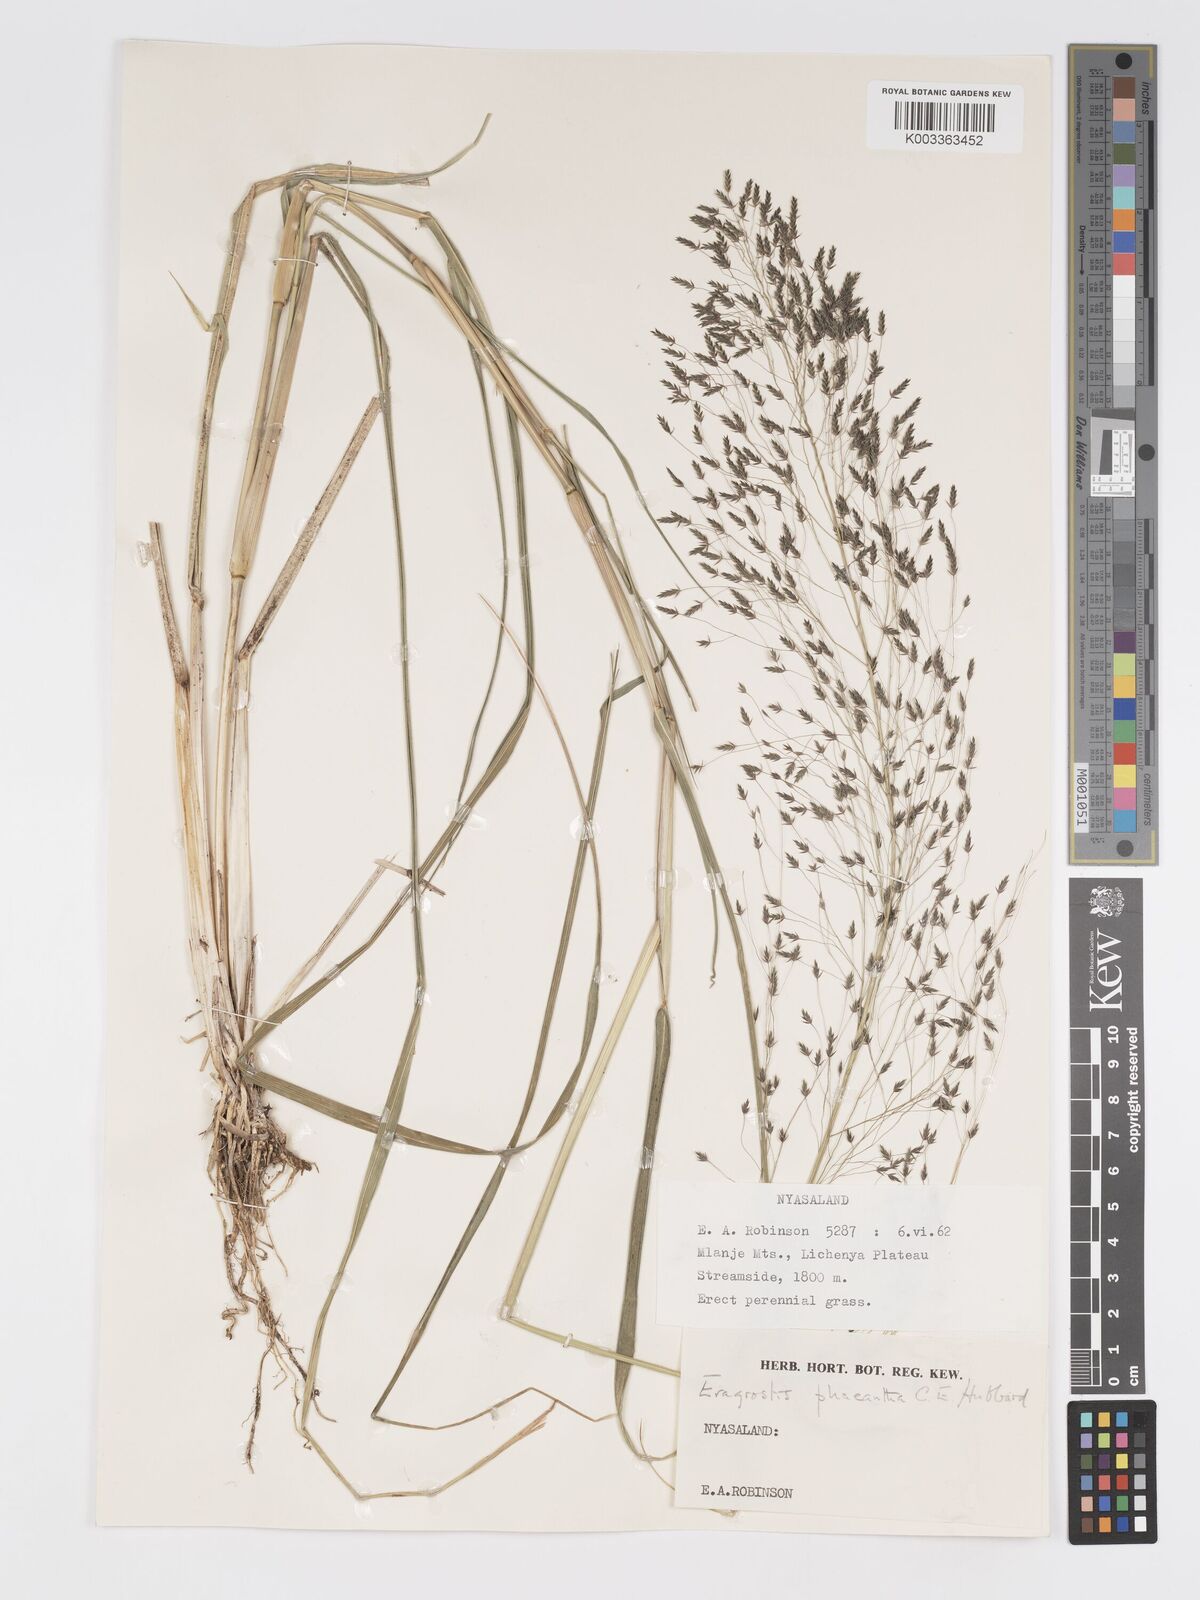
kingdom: Plantae
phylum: Tracheophyta
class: Liliopsida
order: Poales
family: Poaceae
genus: Eragrostis
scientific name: Eragrostis homblei
